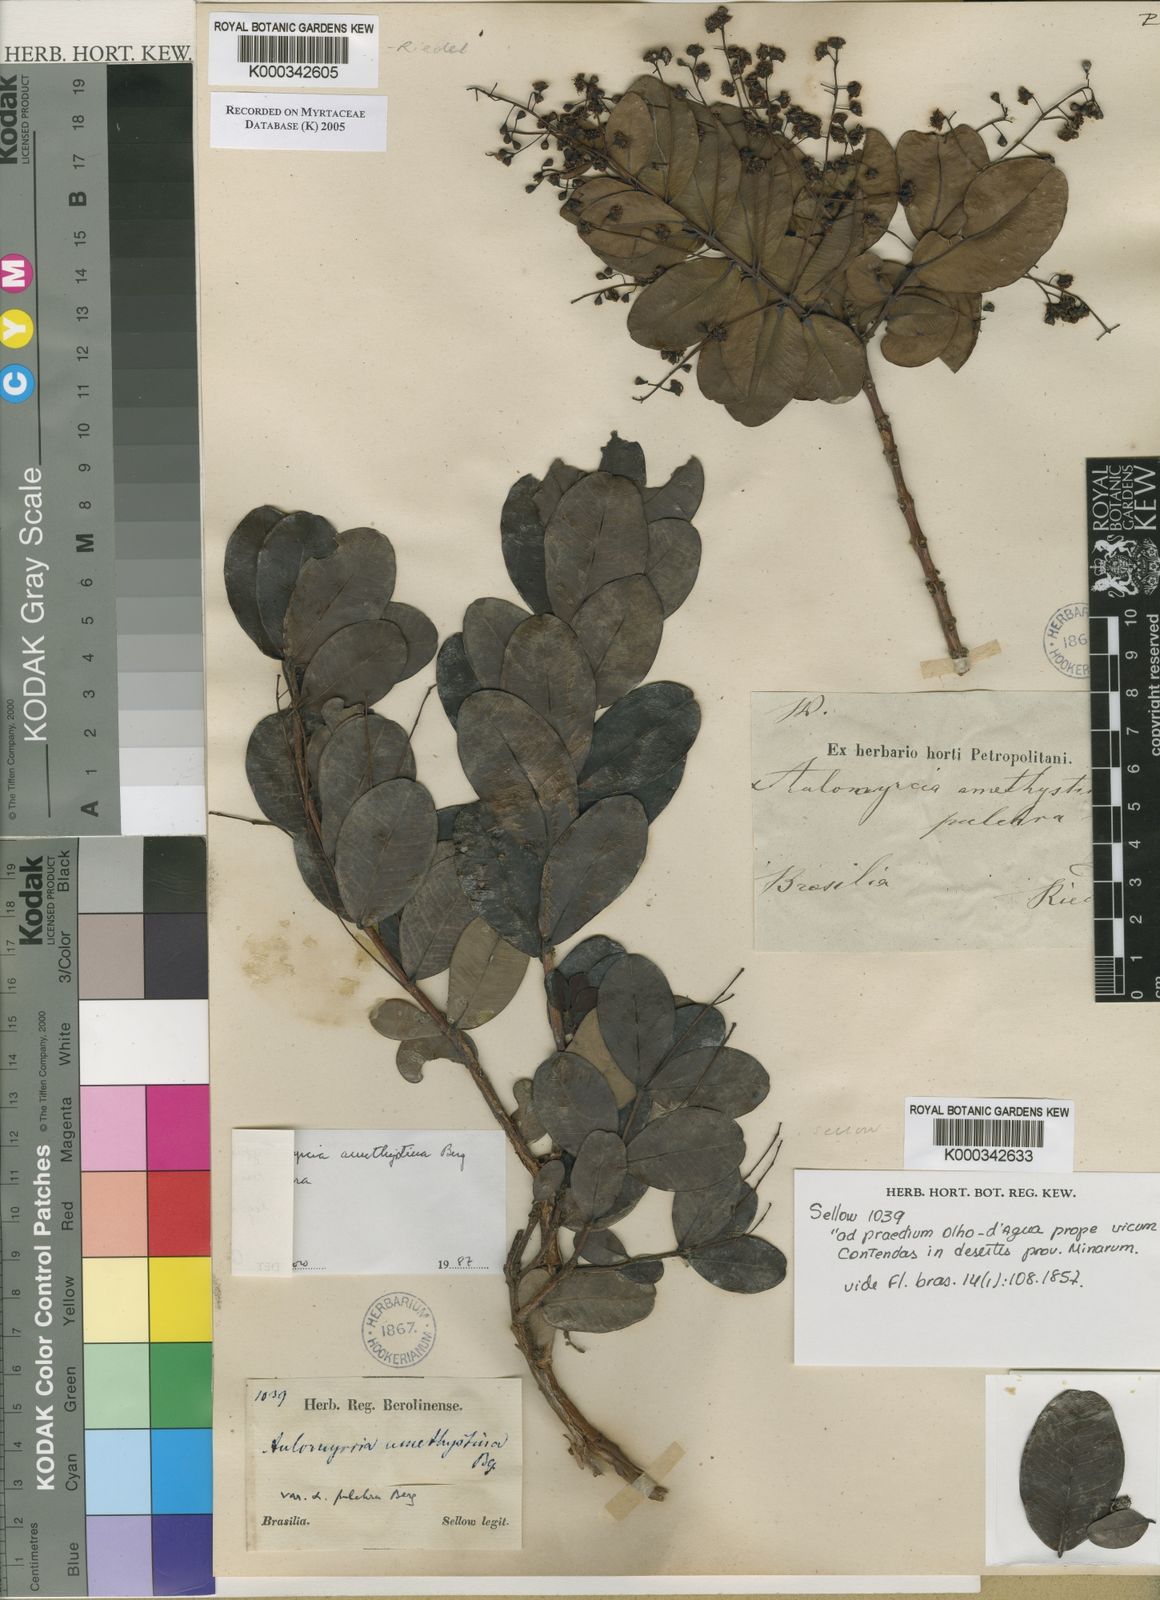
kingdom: Plantae
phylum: Tracheophyta
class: Magnoliopsida
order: Myrtales
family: Myrtaceae
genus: Myrcia
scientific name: Myrcia amethystina
